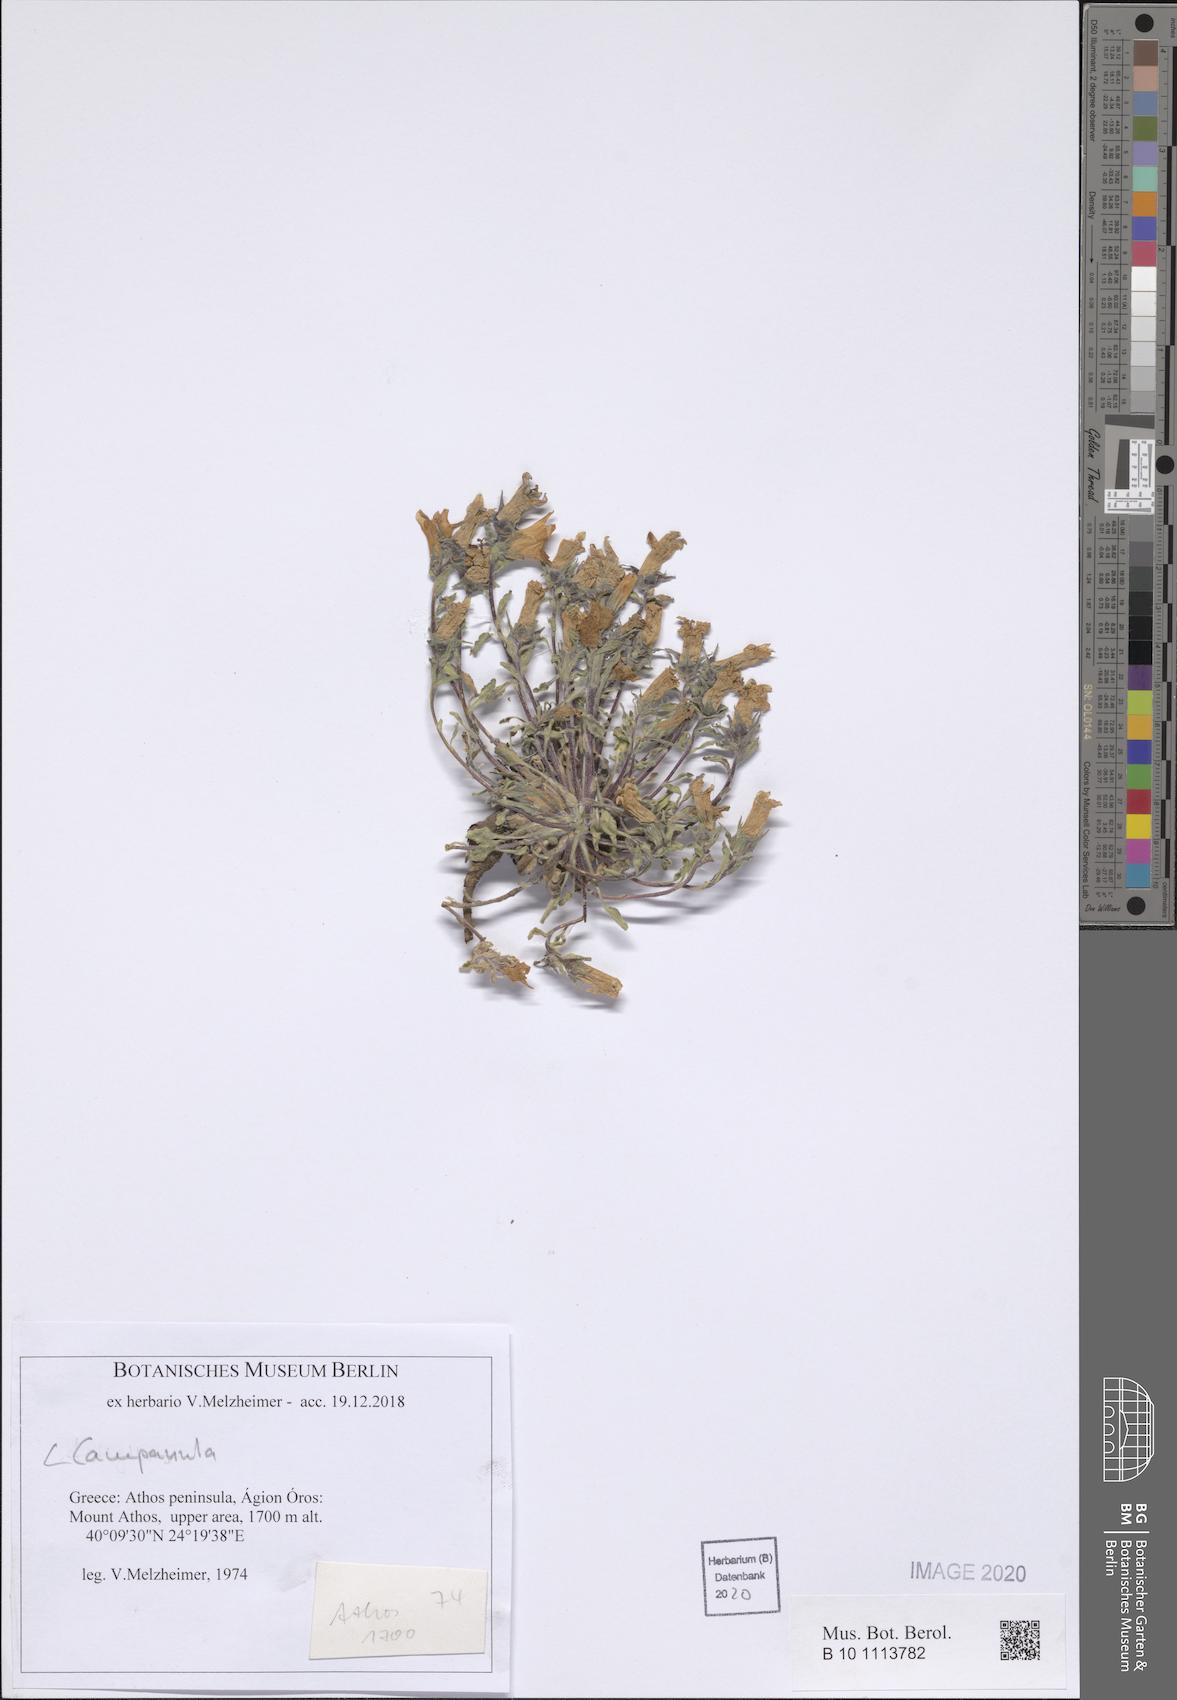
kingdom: Plantae
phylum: Tracheophyta
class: Magnoliopsida
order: Asterales
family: Campanulaceae
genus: Campanula
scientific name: Campanula
